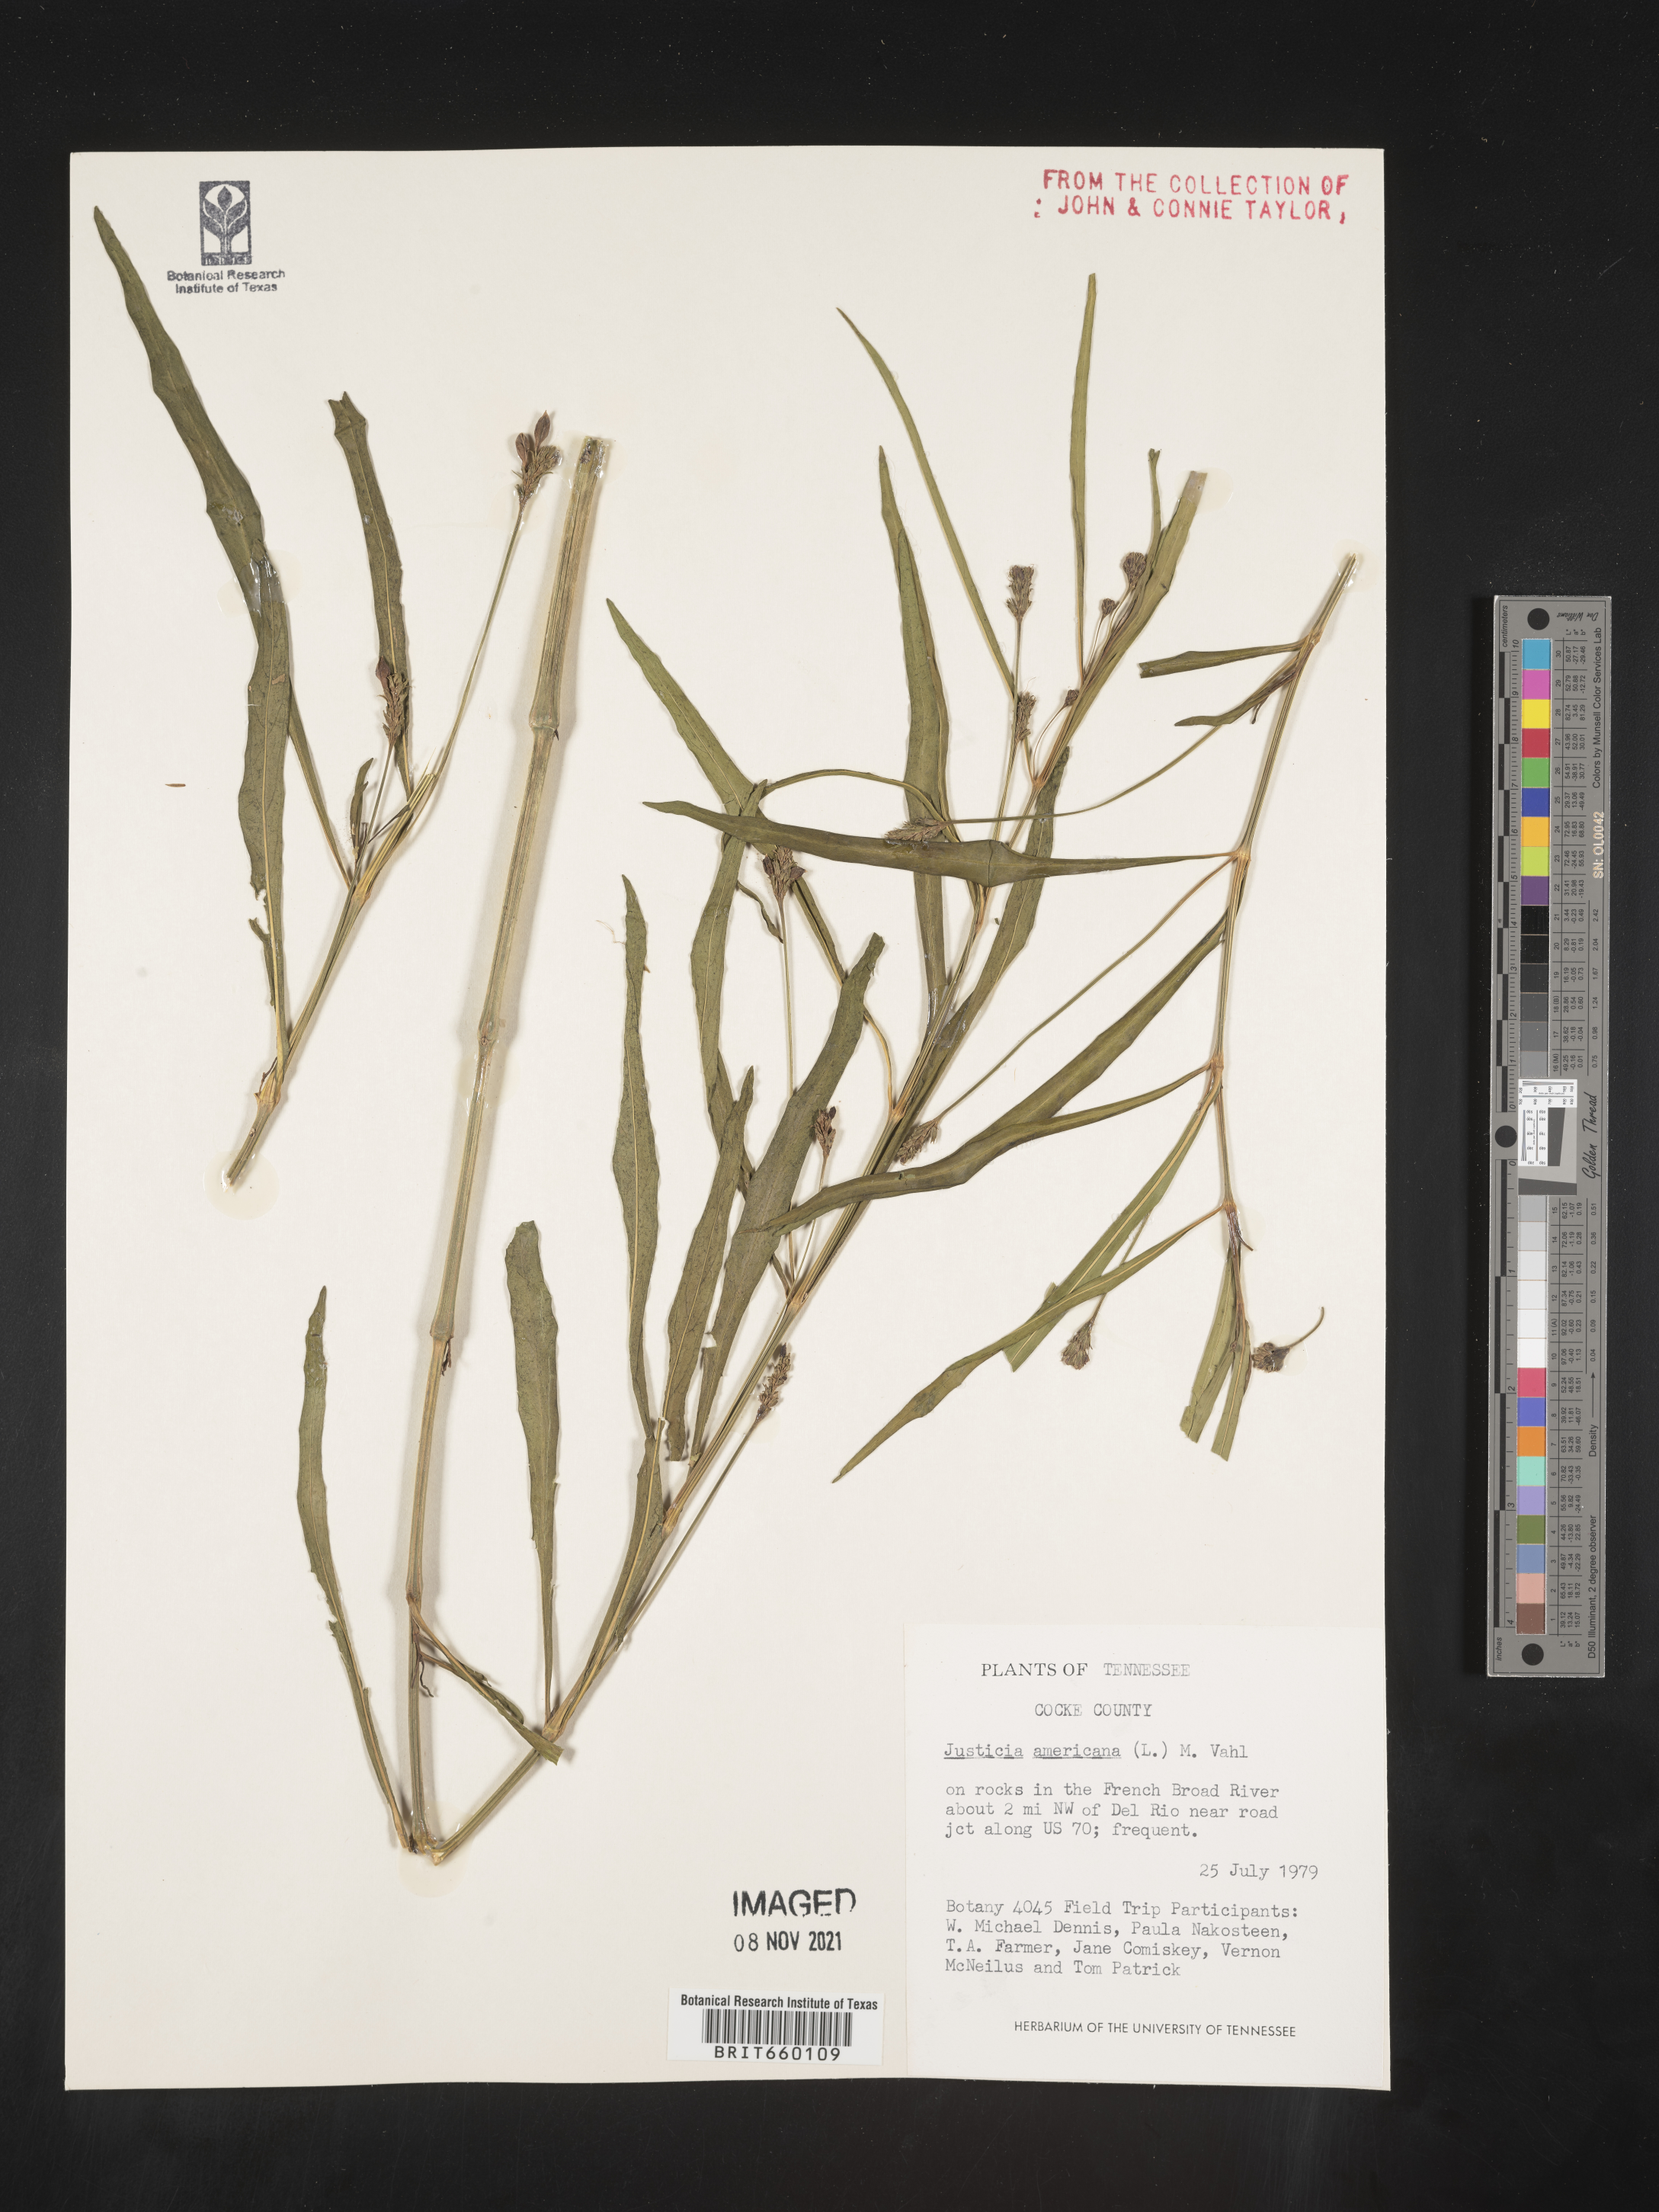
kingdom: Plantae
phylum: Tracheophyta
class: Magnoliopsida
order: Lamiales
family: Acanthaceae
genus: Dianthera
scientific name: Dianthera americana
